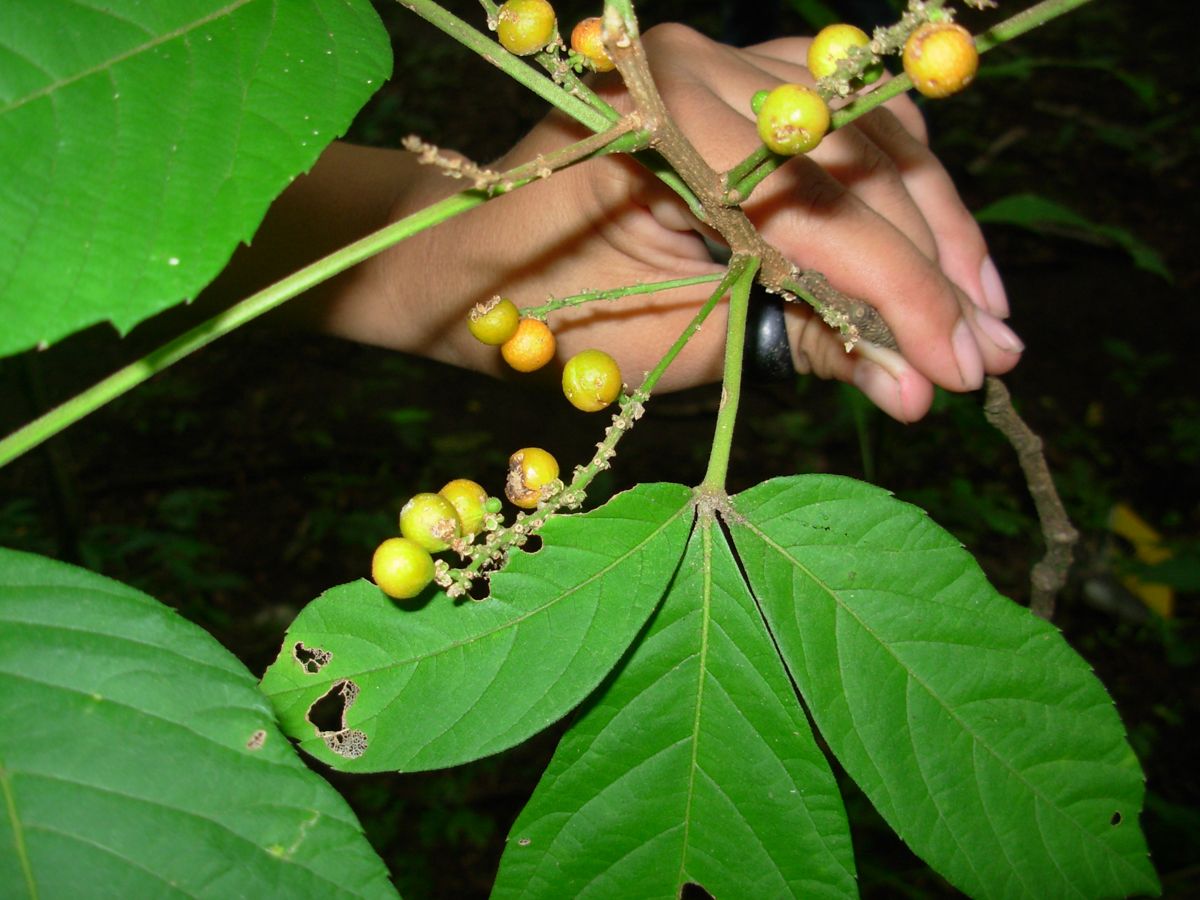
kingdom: Plantae
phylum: Tracheophyta
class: Magnoliopsida
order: Sapindales
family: Sapindaceae
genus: Allophylus
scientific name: Allophylus racemosus
